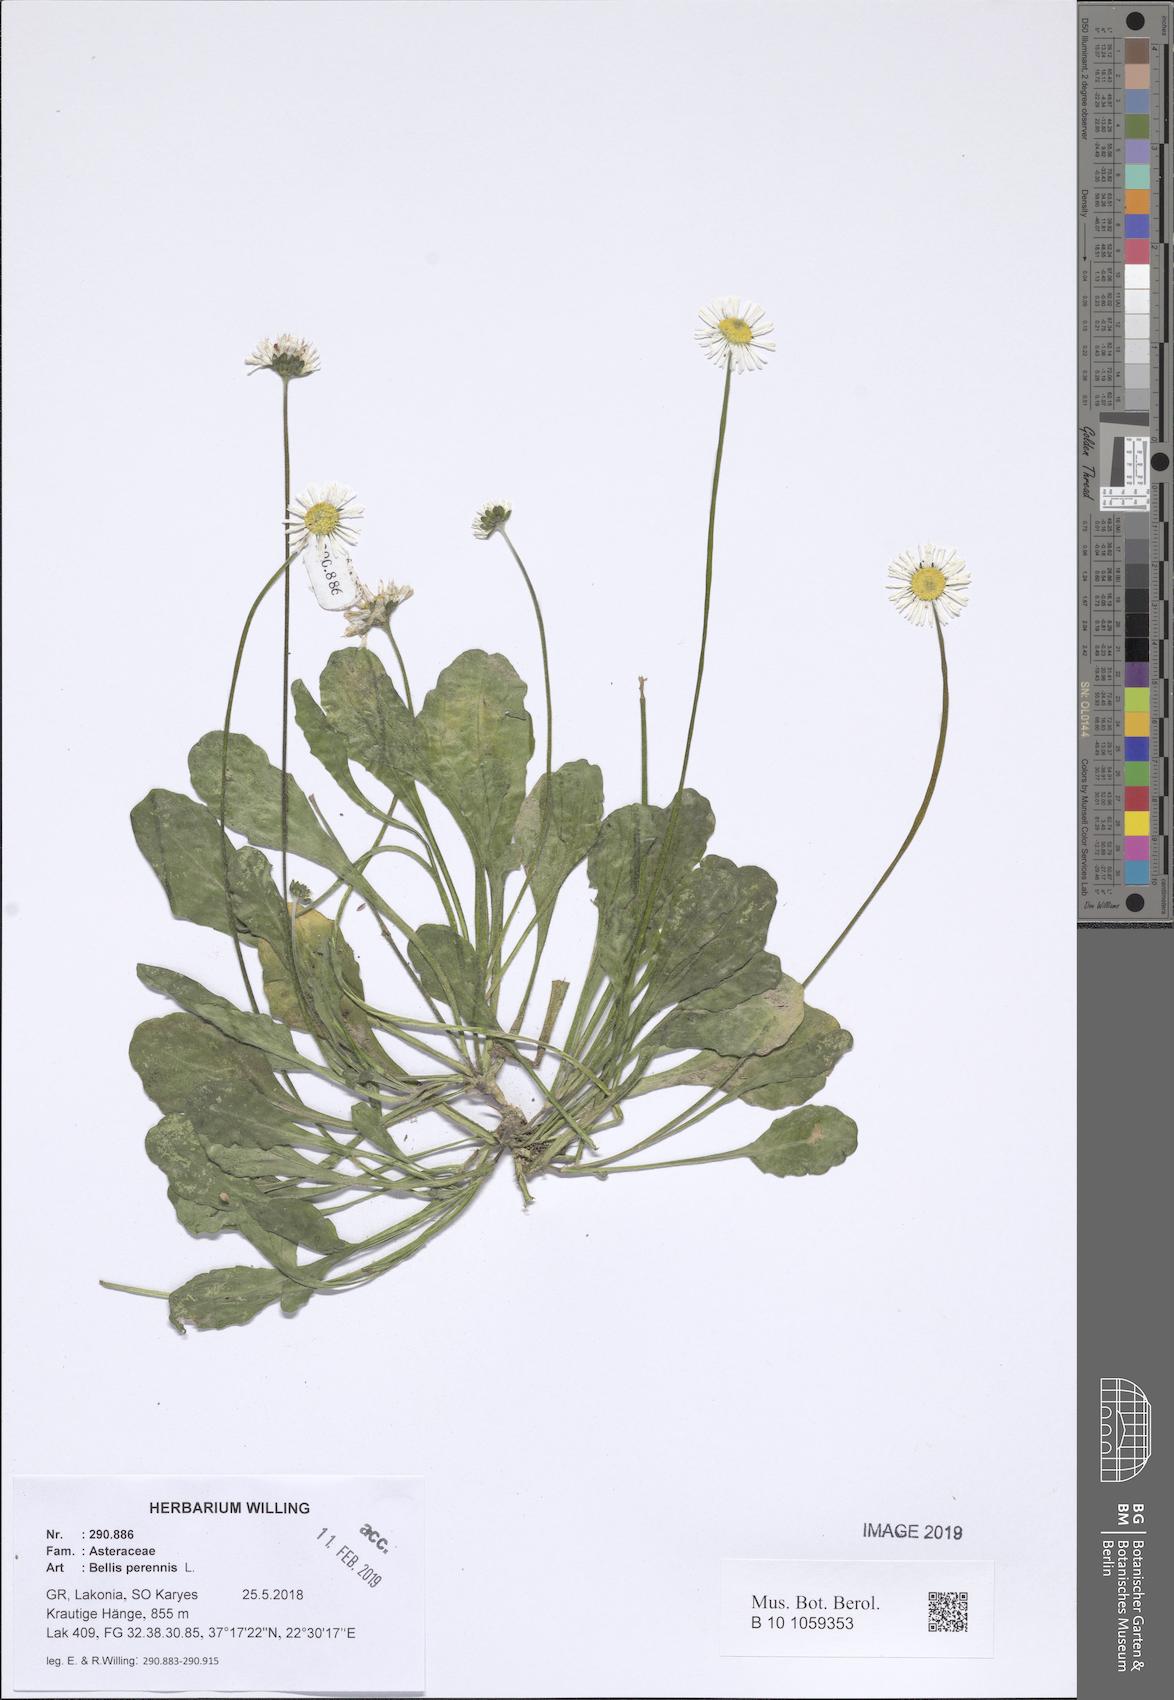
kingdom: Plantae
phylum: Tracheophyta
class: Magnoliopsida
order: Asterales
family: Asteraceae
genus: Bellis
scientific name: Bellis perennis
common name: Lawndaisy
